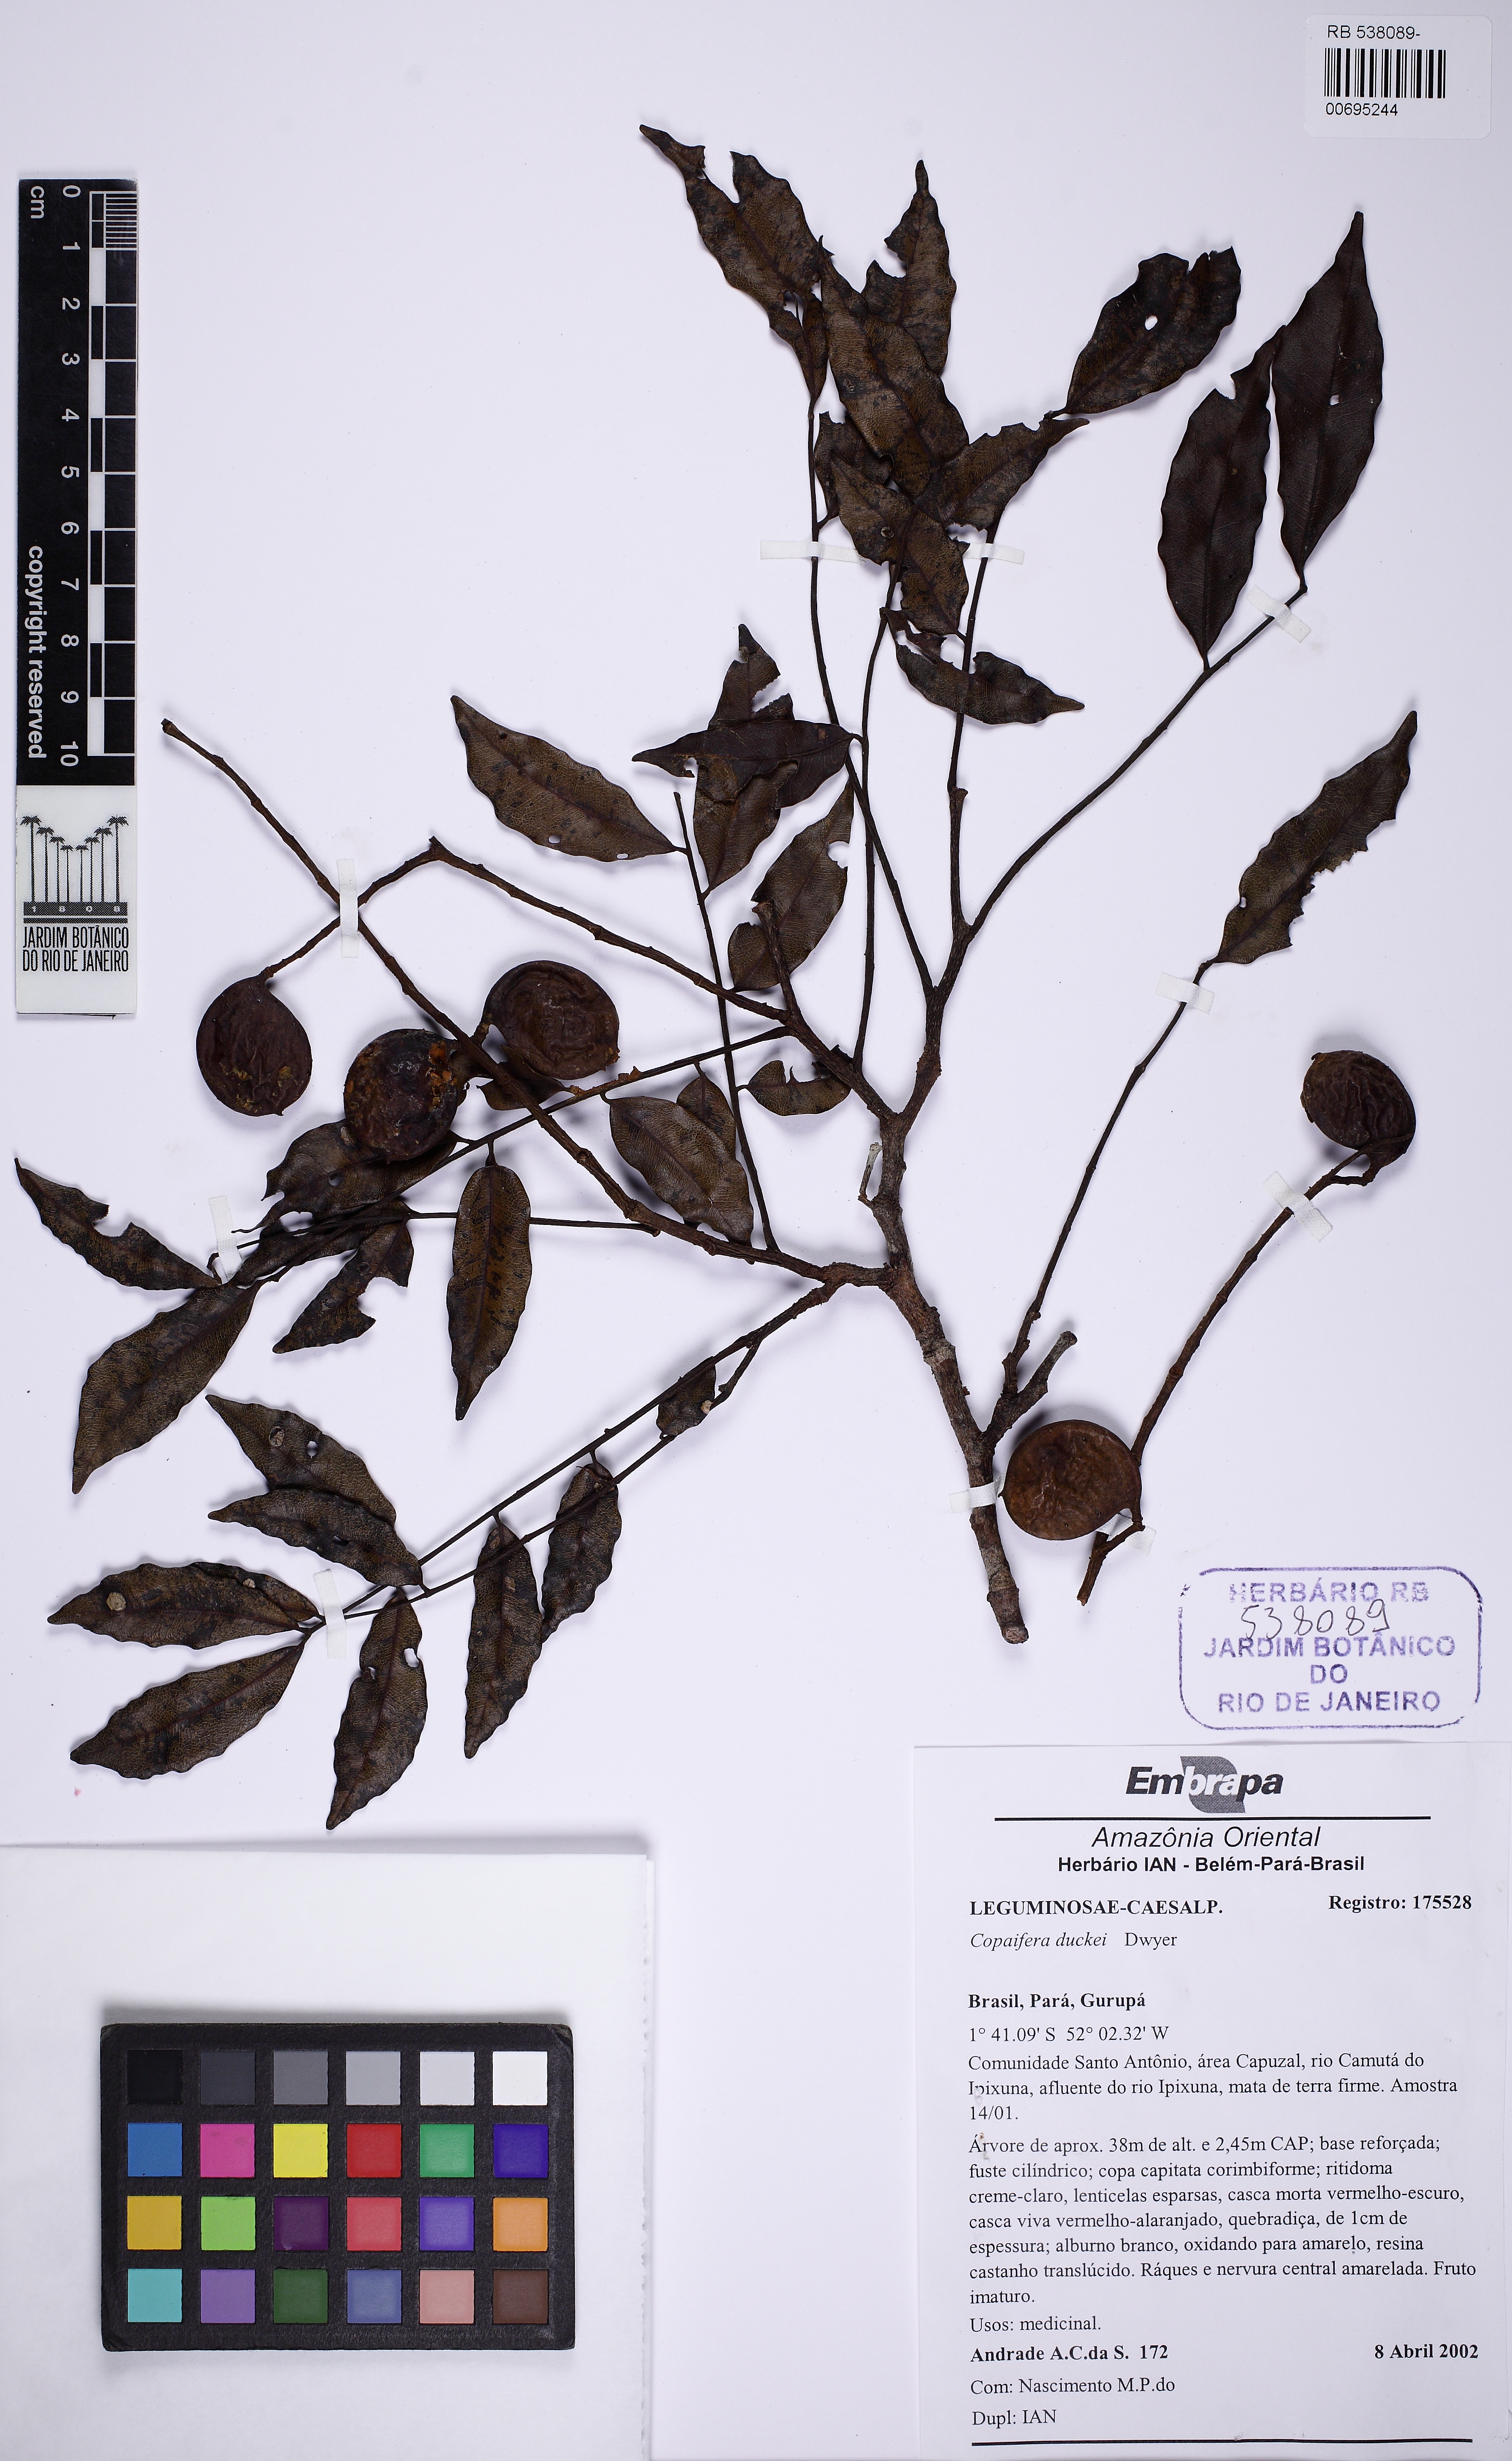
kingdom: Plantae
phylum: Tracheophyta
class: Magnoliopsida
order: Fabales
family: Fabaceae
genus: Copaifera
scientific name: Copaifera duckei
